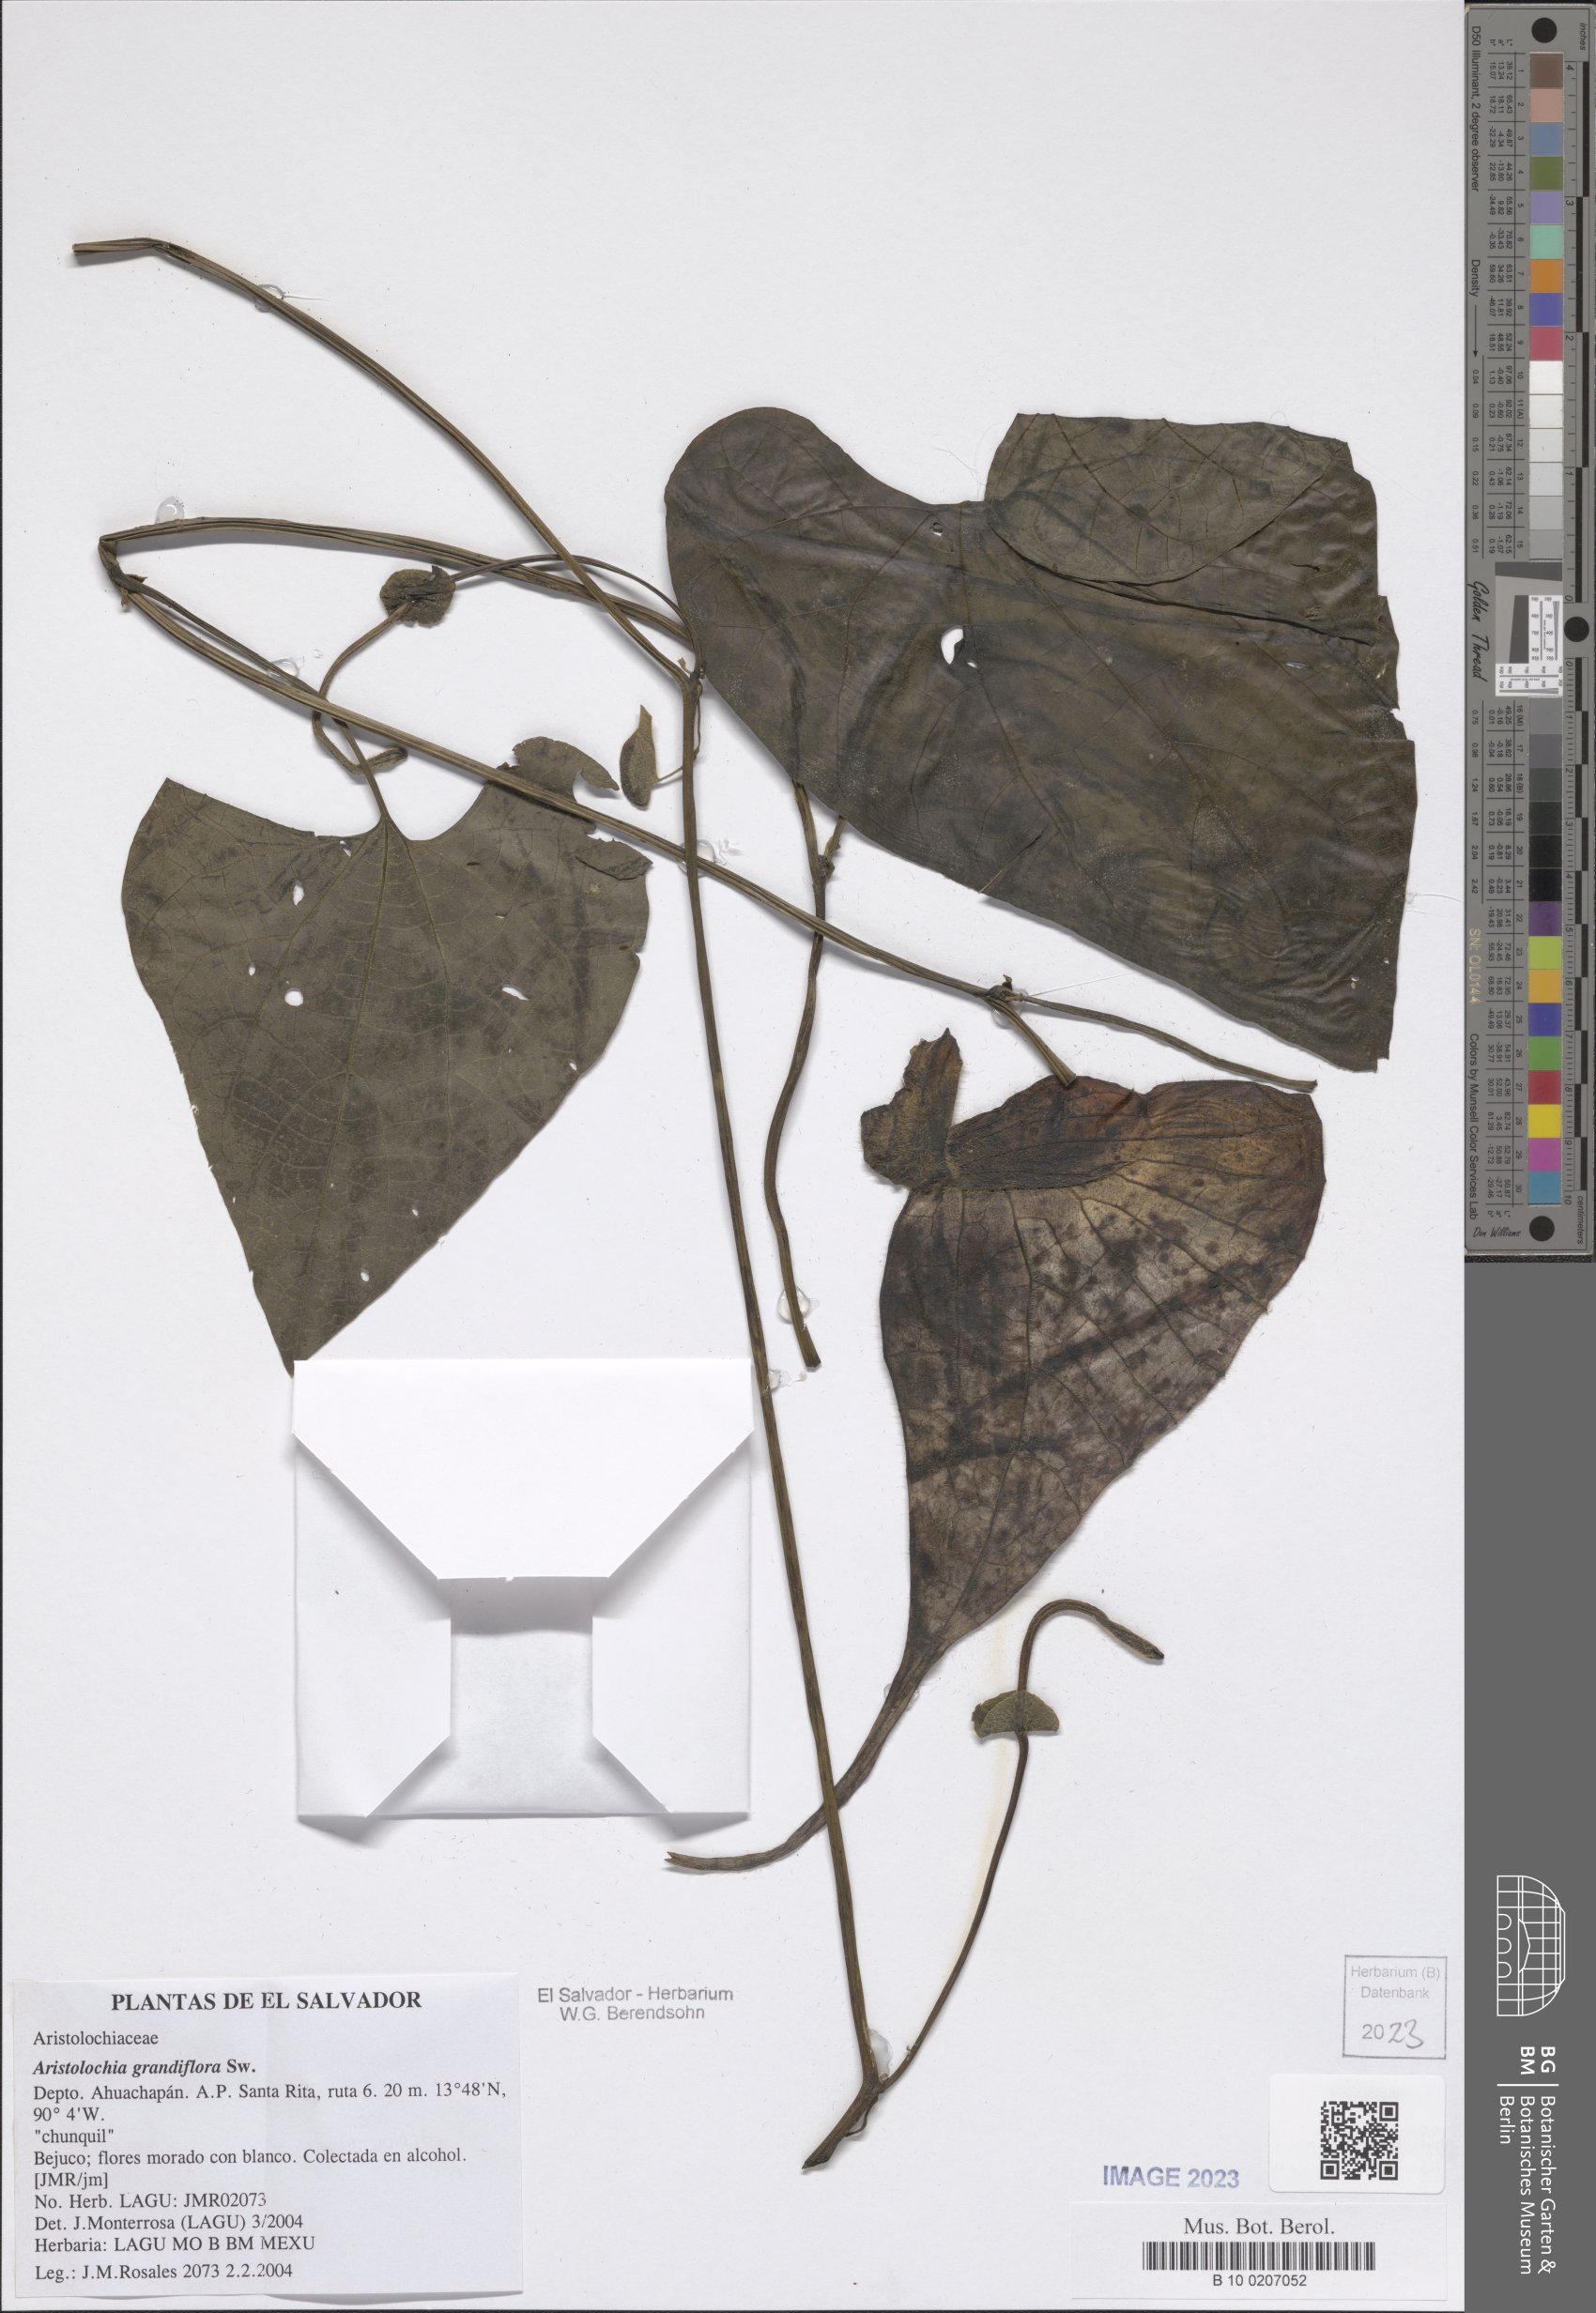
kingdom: Plantae
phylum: Tracheophyta
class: Magnoliopsida
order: Piperales
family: Aristolochiaceae
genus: Aristolochia
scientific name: Aristolochia grandiflora
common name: Pelicanflower
